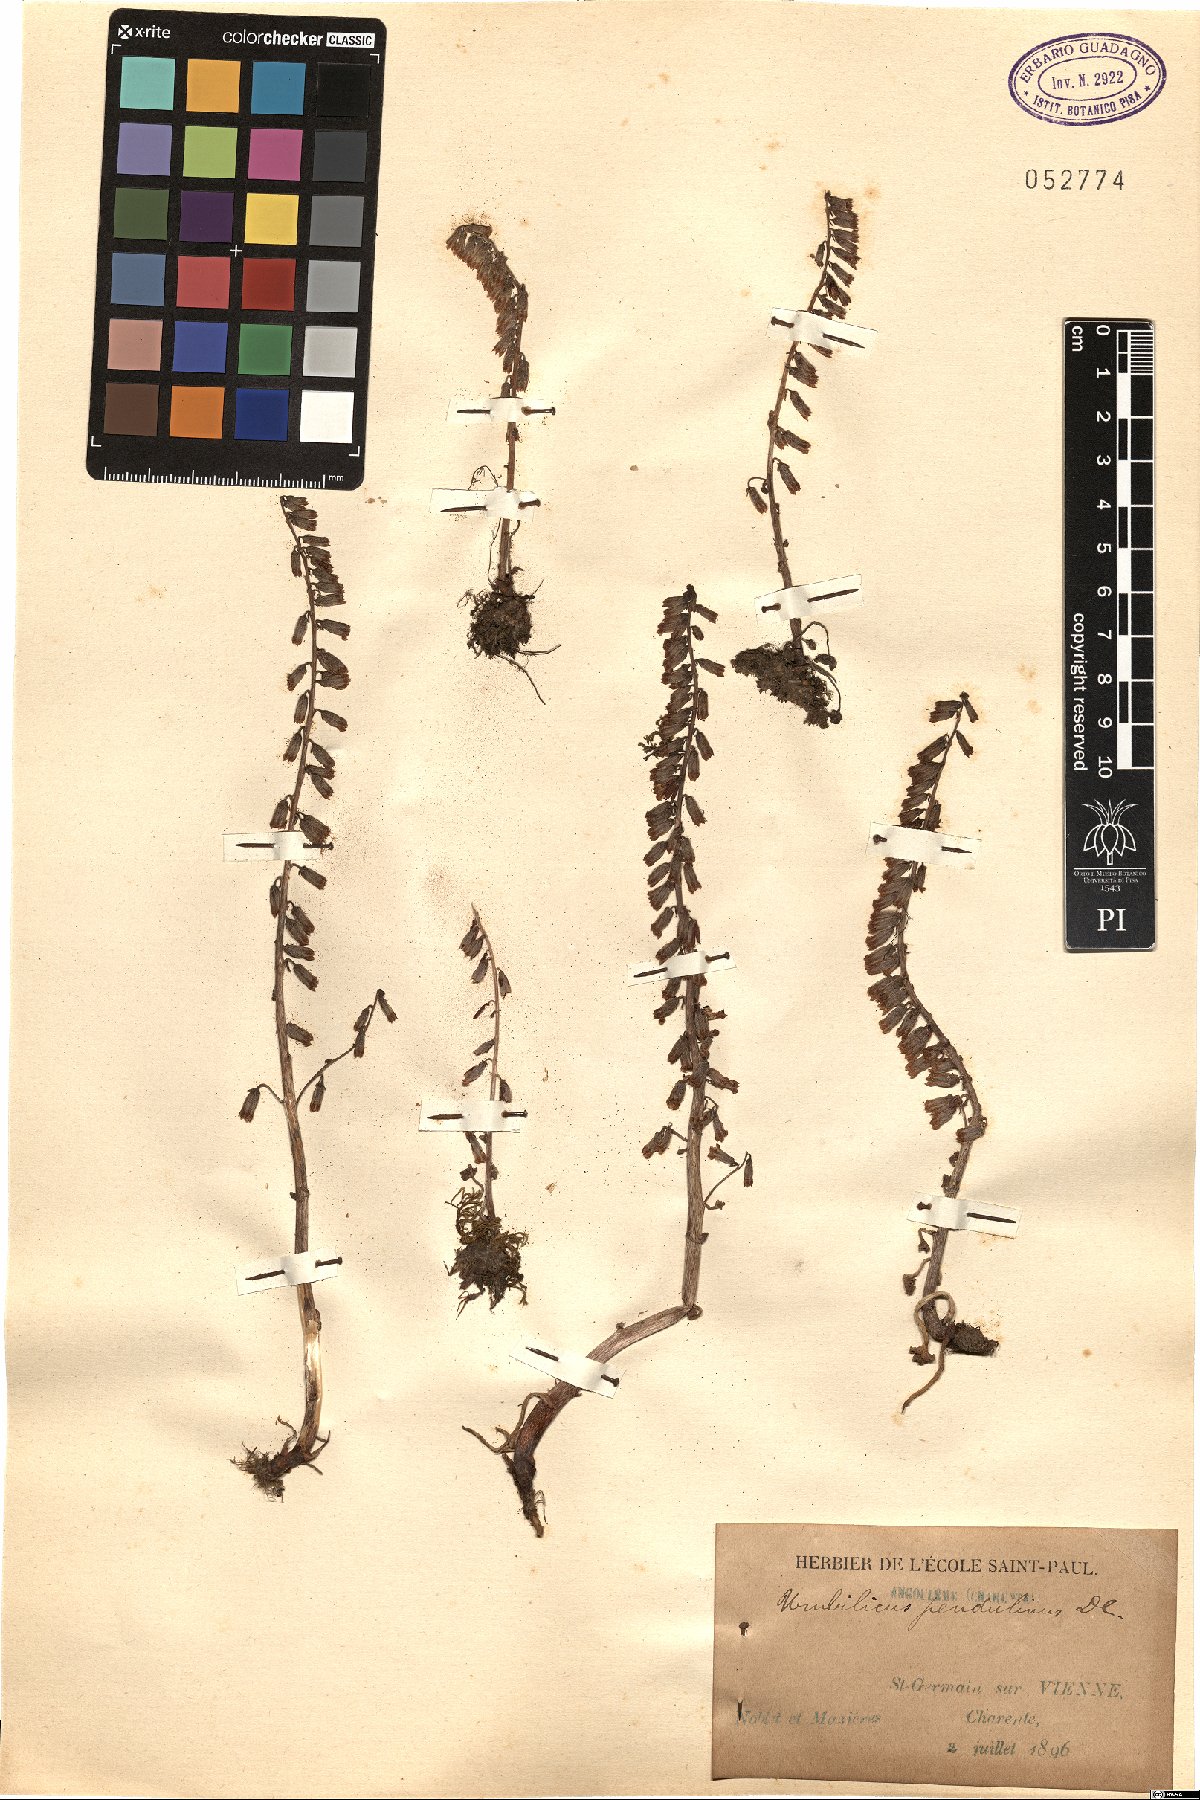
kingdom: Plantae
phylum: Tracheophyta
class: Magnoliopsida
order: Saxifragales
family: Crassulaceae
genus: Umbilicus
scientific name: Umbilicus rupestris
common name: Navelwort
